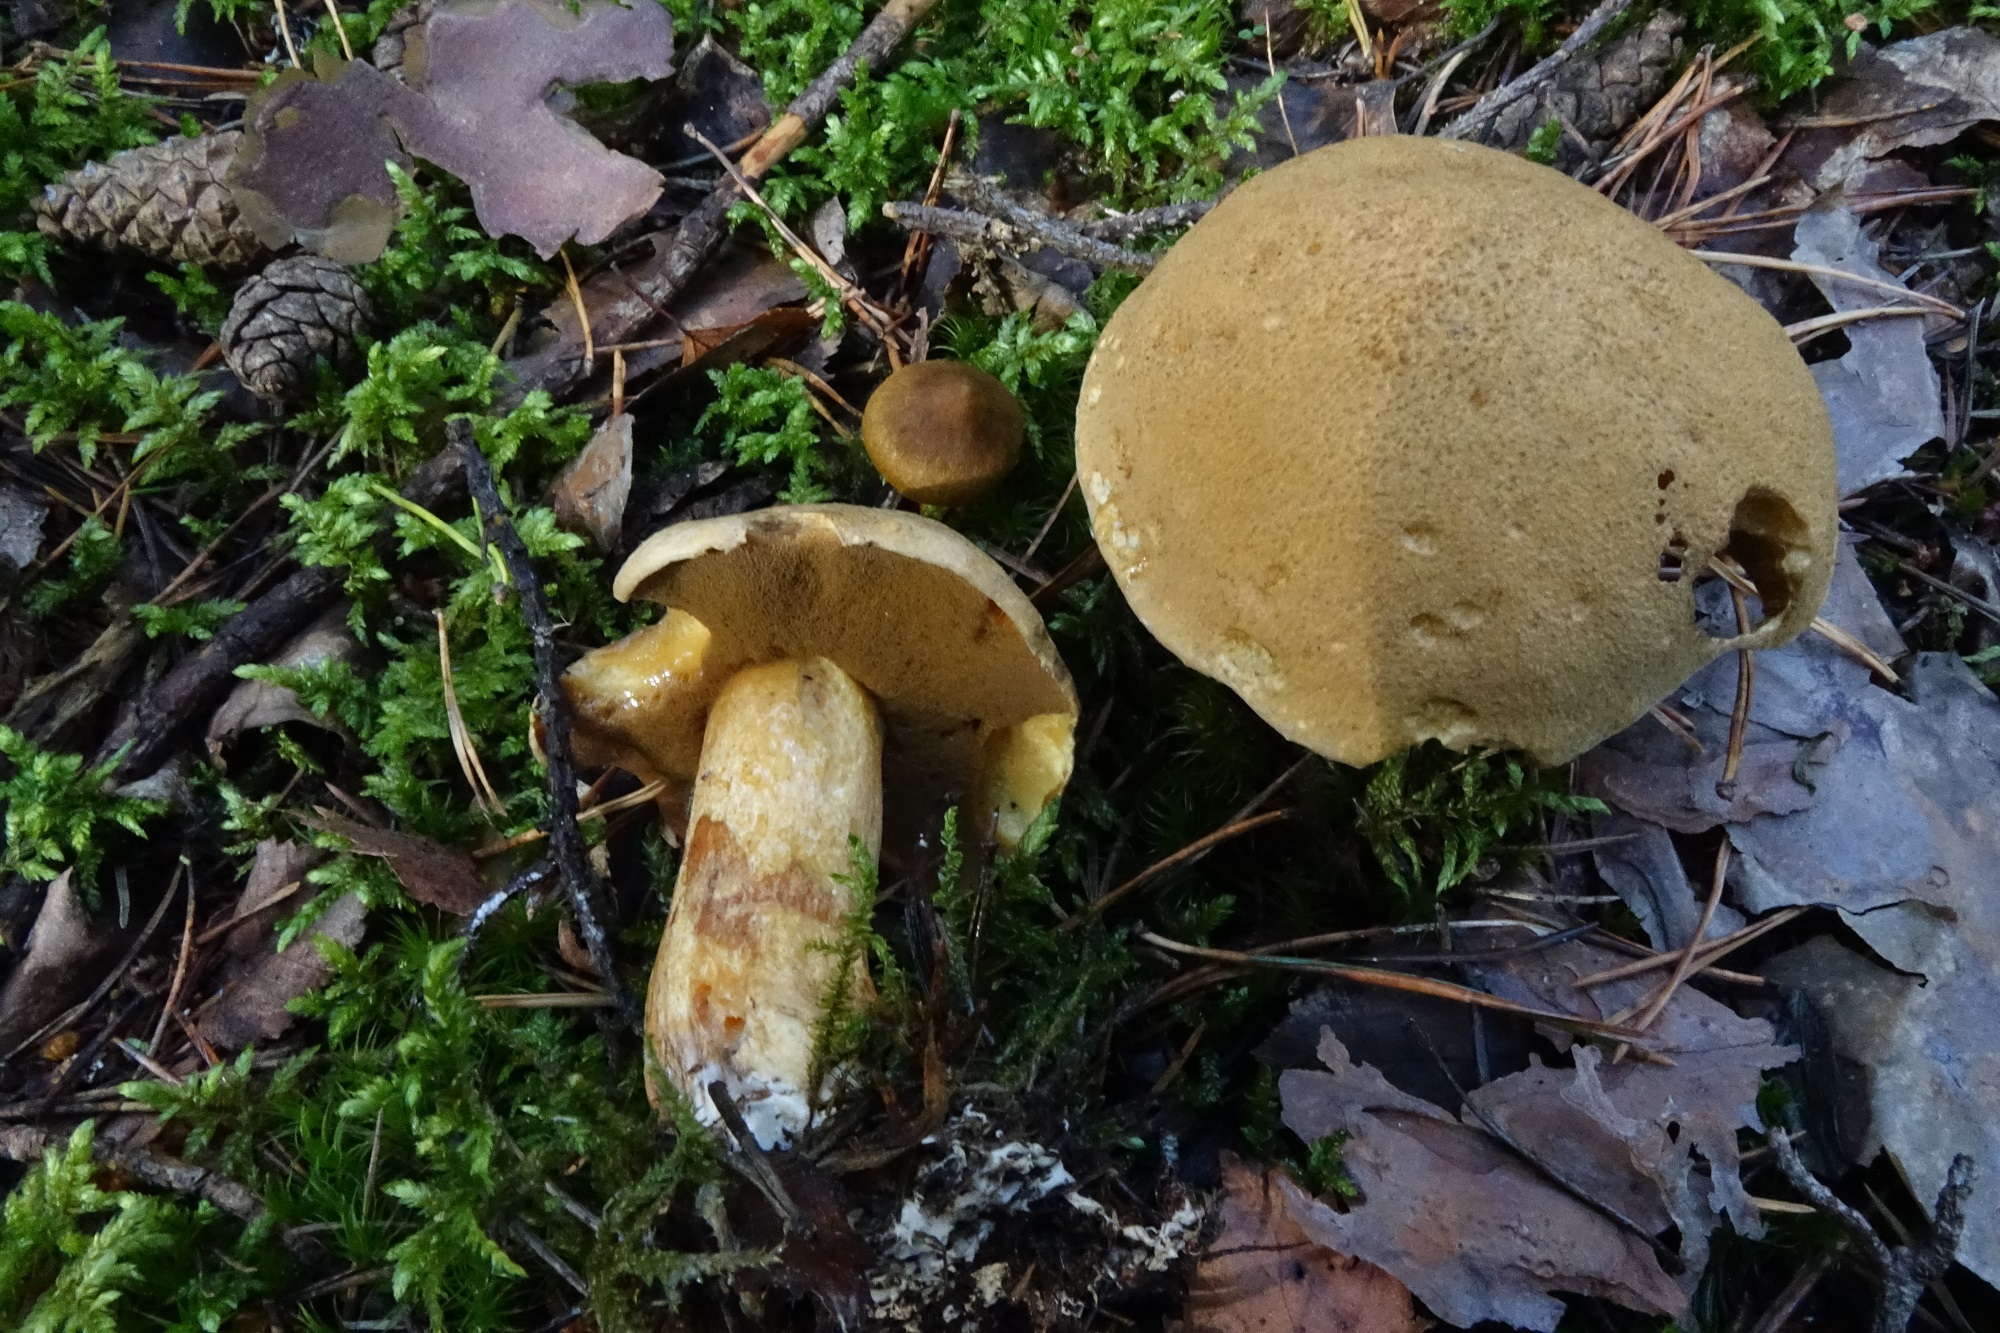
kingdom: Fungi
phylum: Basidiomycota
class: Agaricomycetes
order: Boletales
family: Suillaceae
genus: Suillus
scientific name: Suillus variegatus
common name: Velvet bolete
